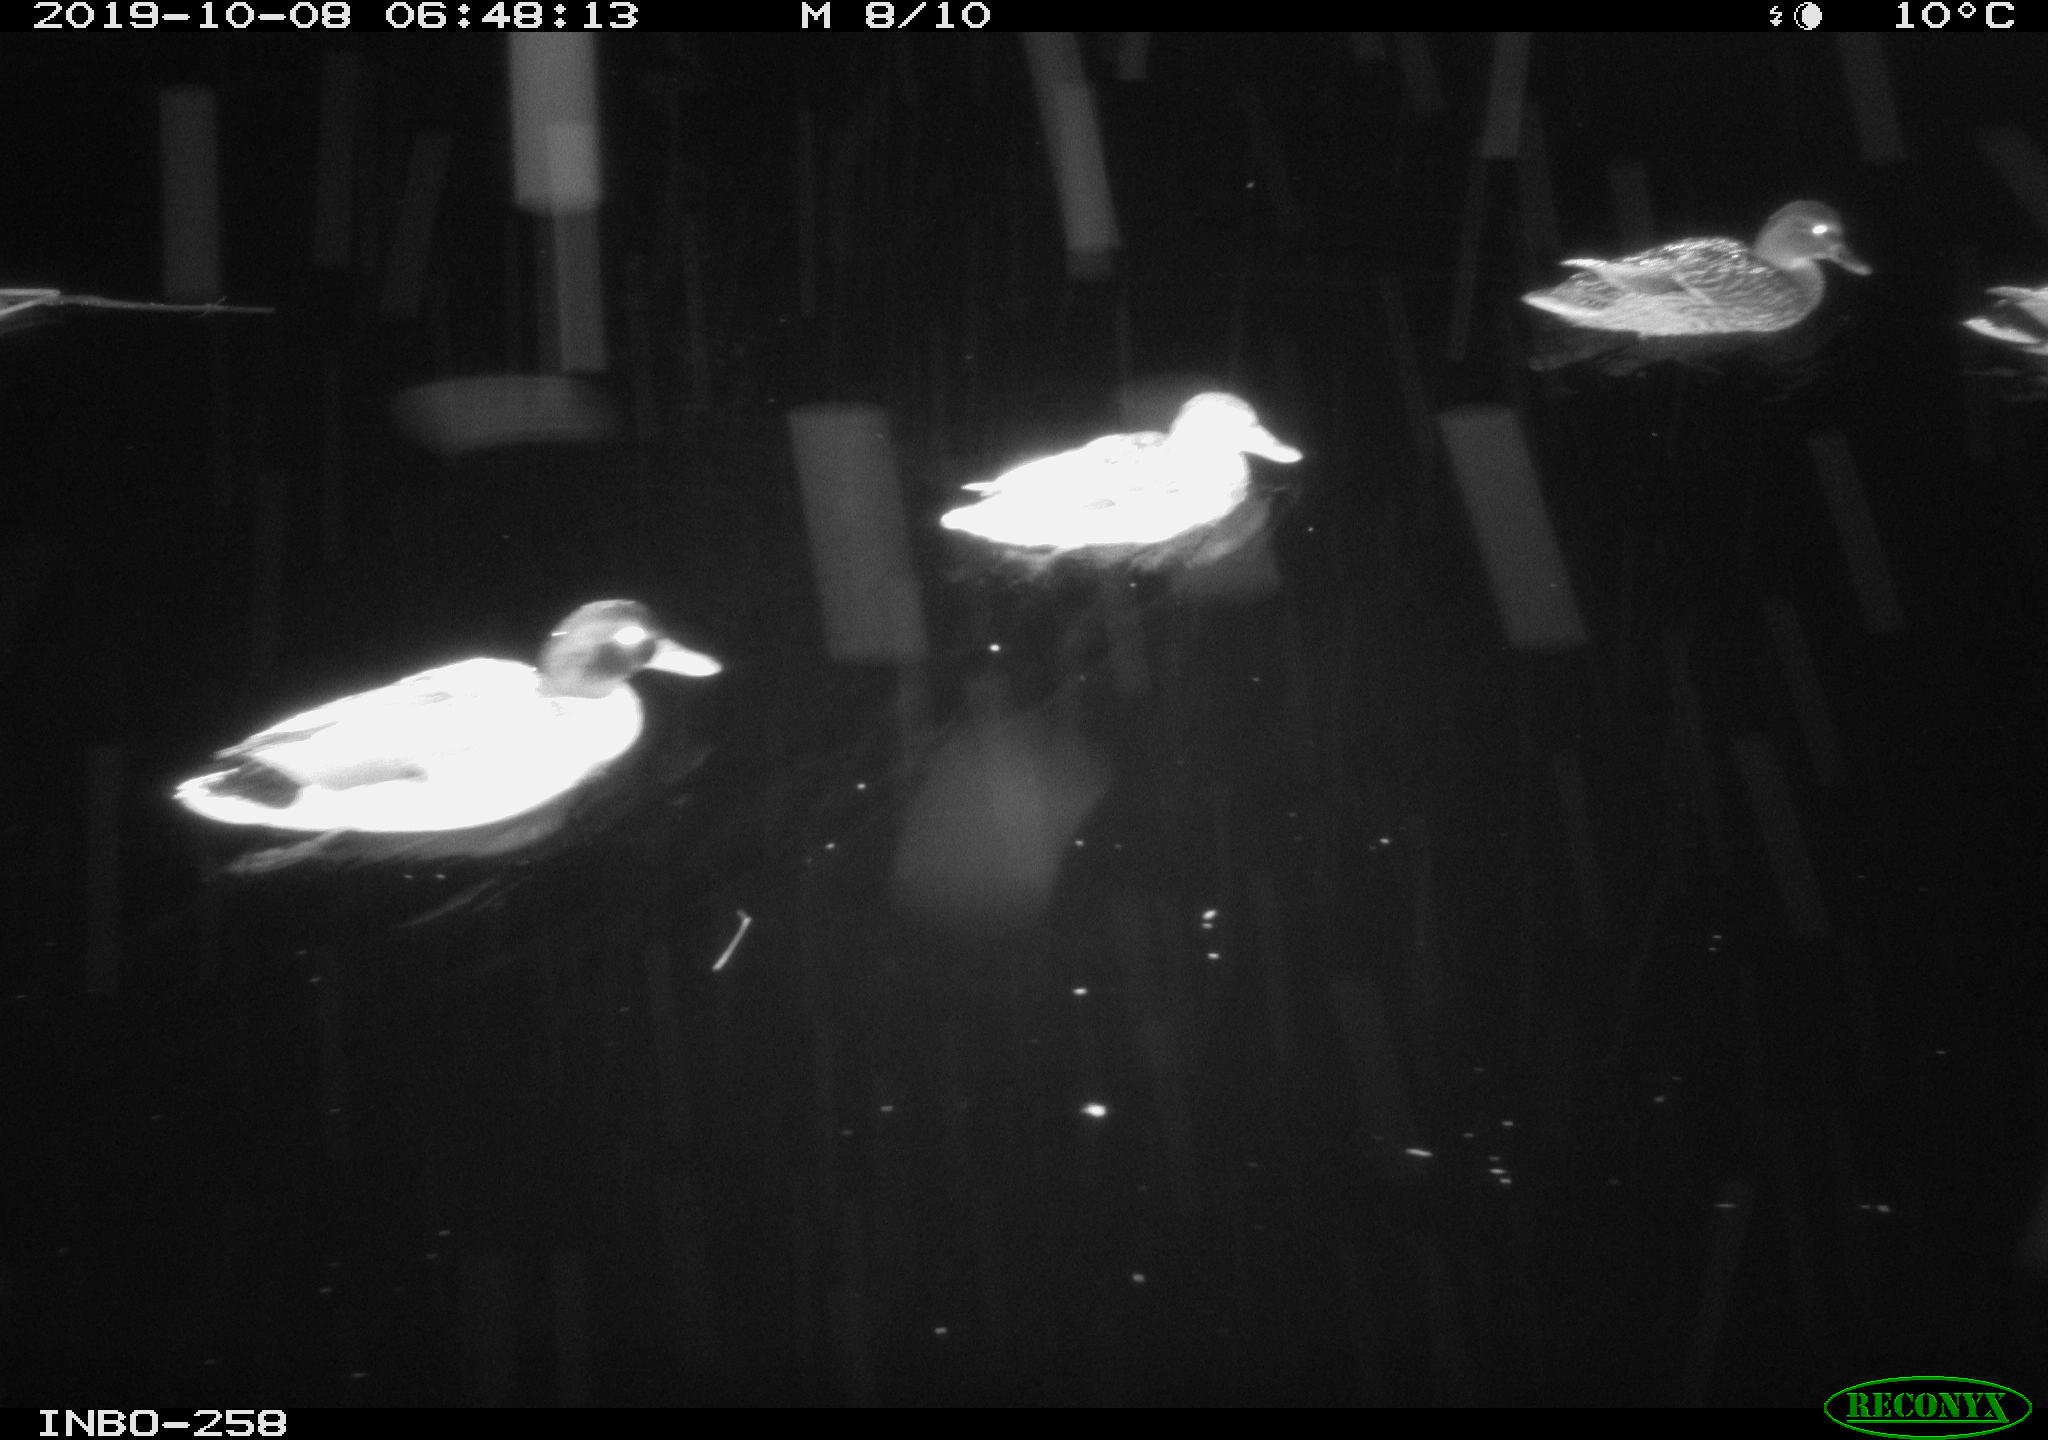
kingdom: Animalia
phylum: Chordata
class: Aves
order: Anseriformes
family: Anatidae
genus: Anas
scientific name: Anas platyrhynchos
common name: Mallard
